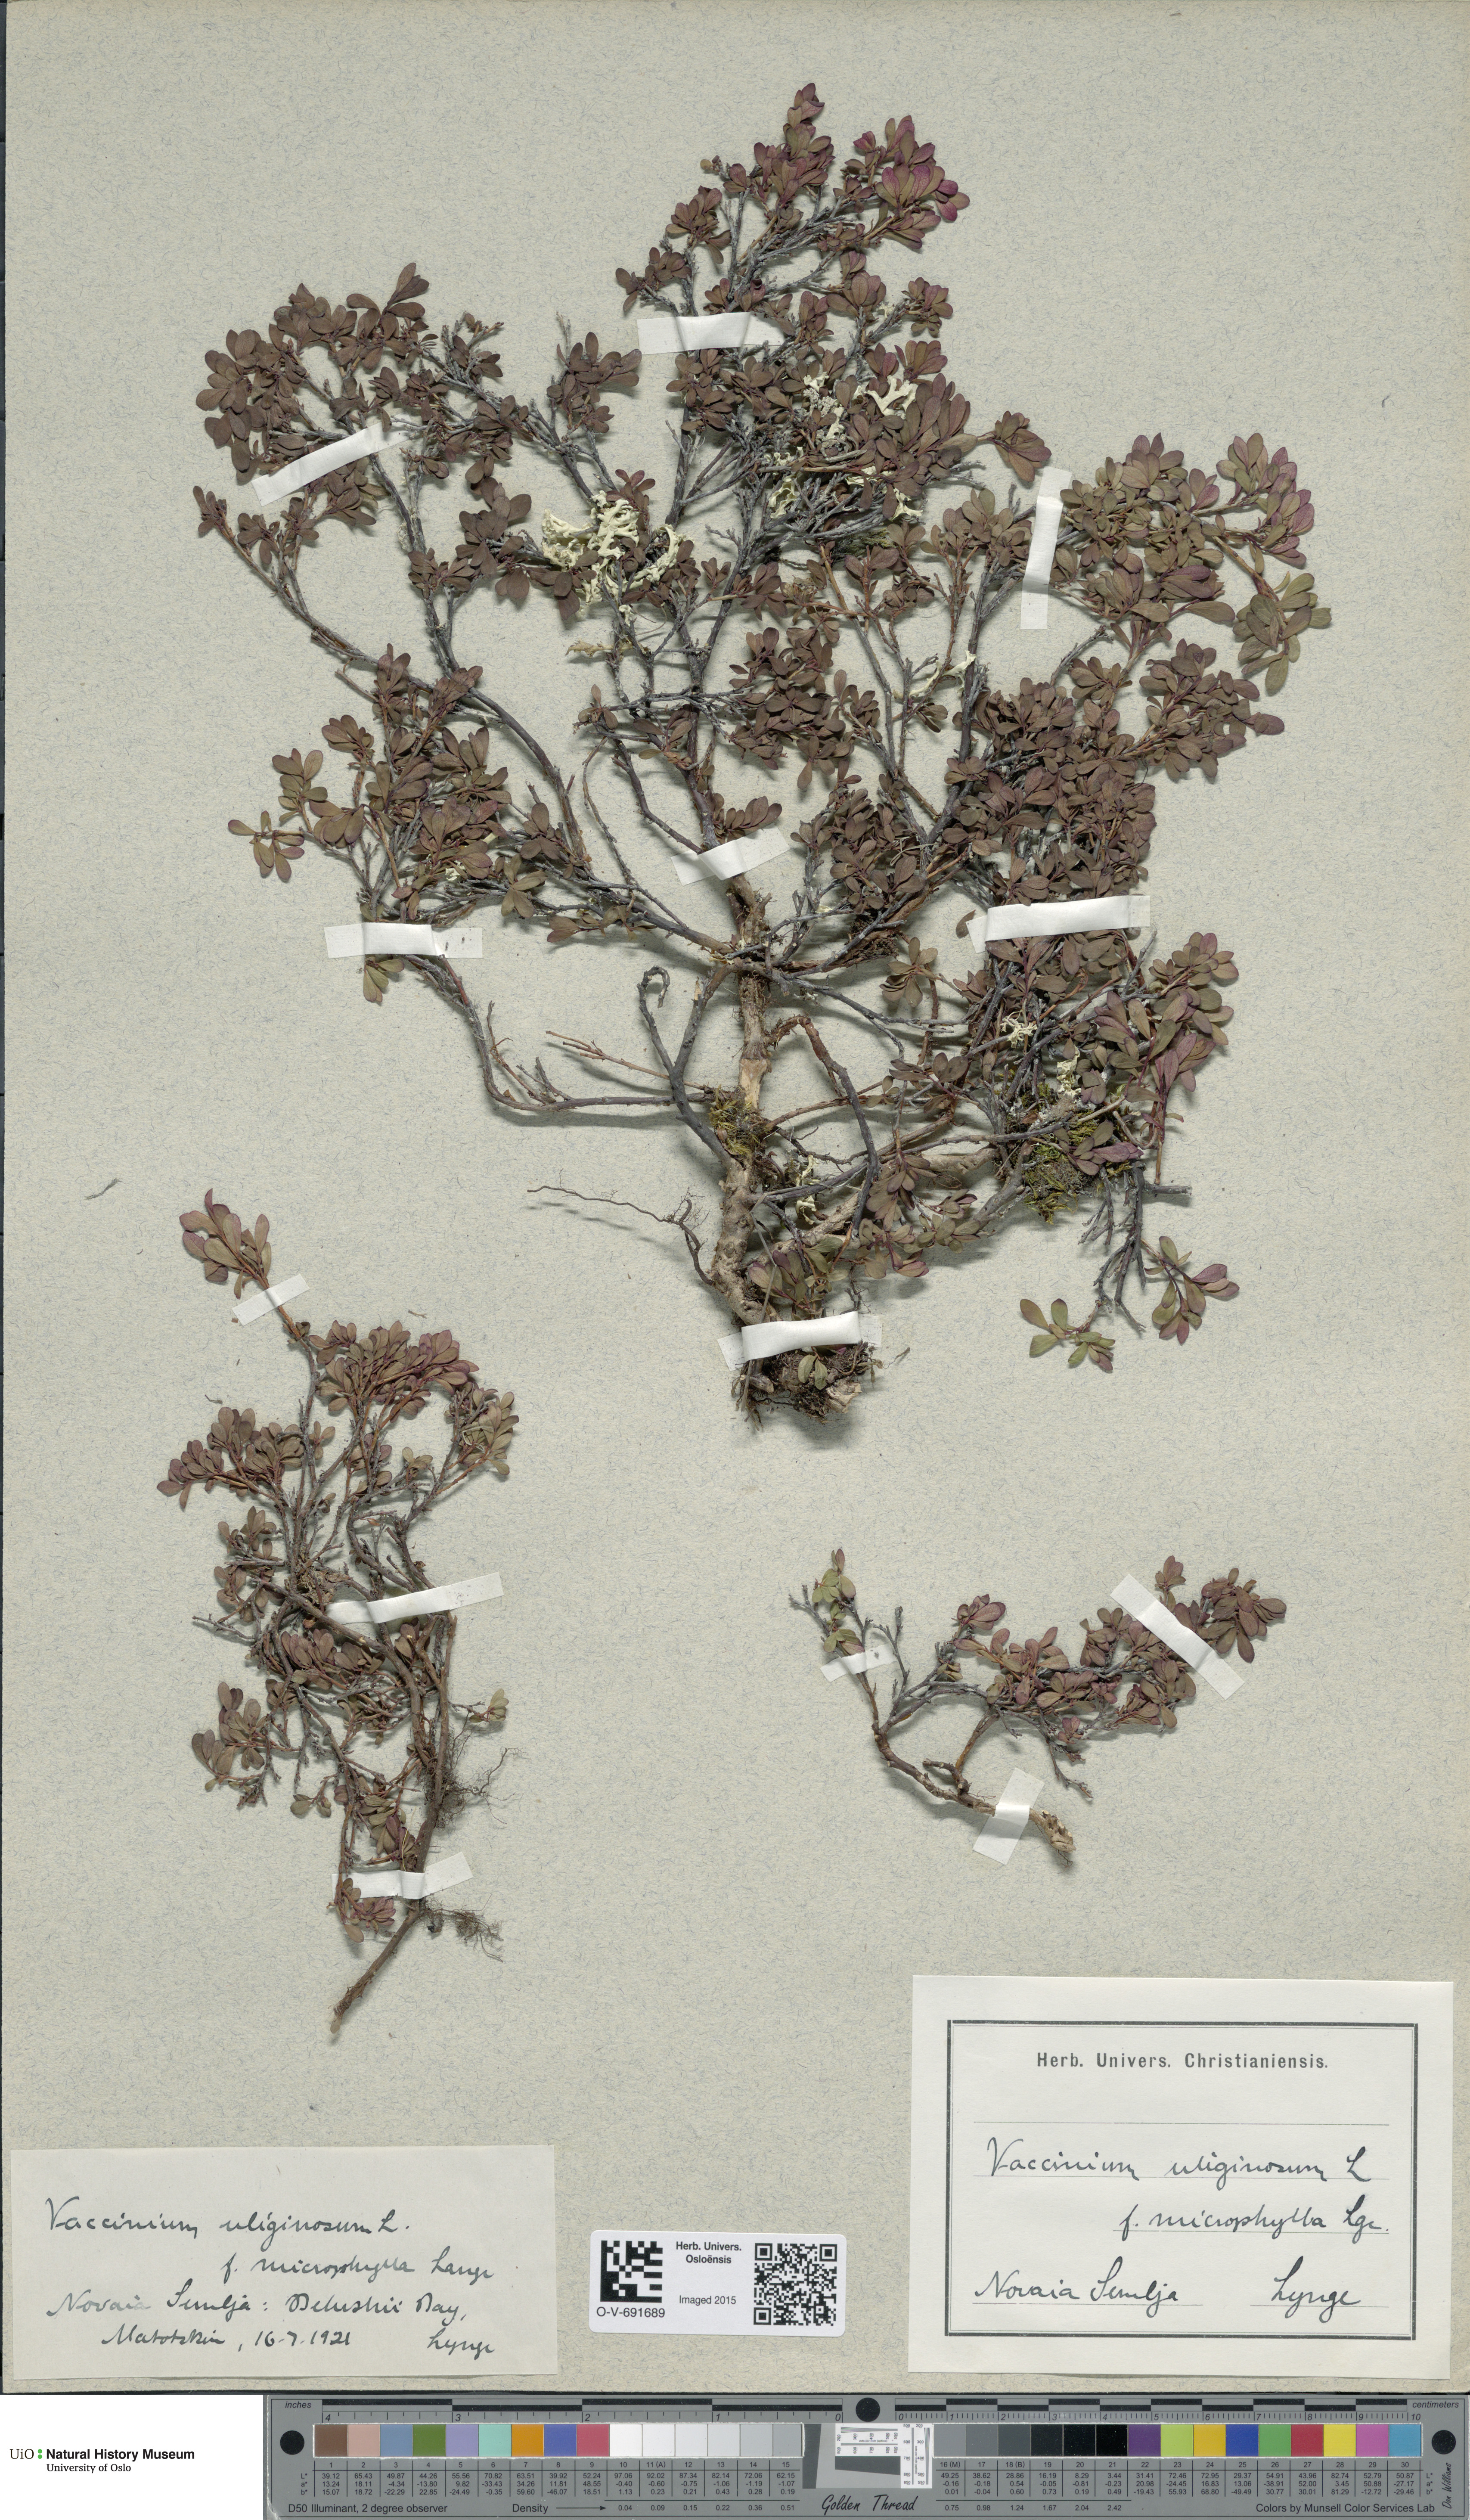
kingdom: Plantae
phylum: Tracheophyta
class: Magnoliopsida
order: Ericales
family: Ericaceae
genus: Vaccinium
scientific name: Vaccinium gaultherioides
